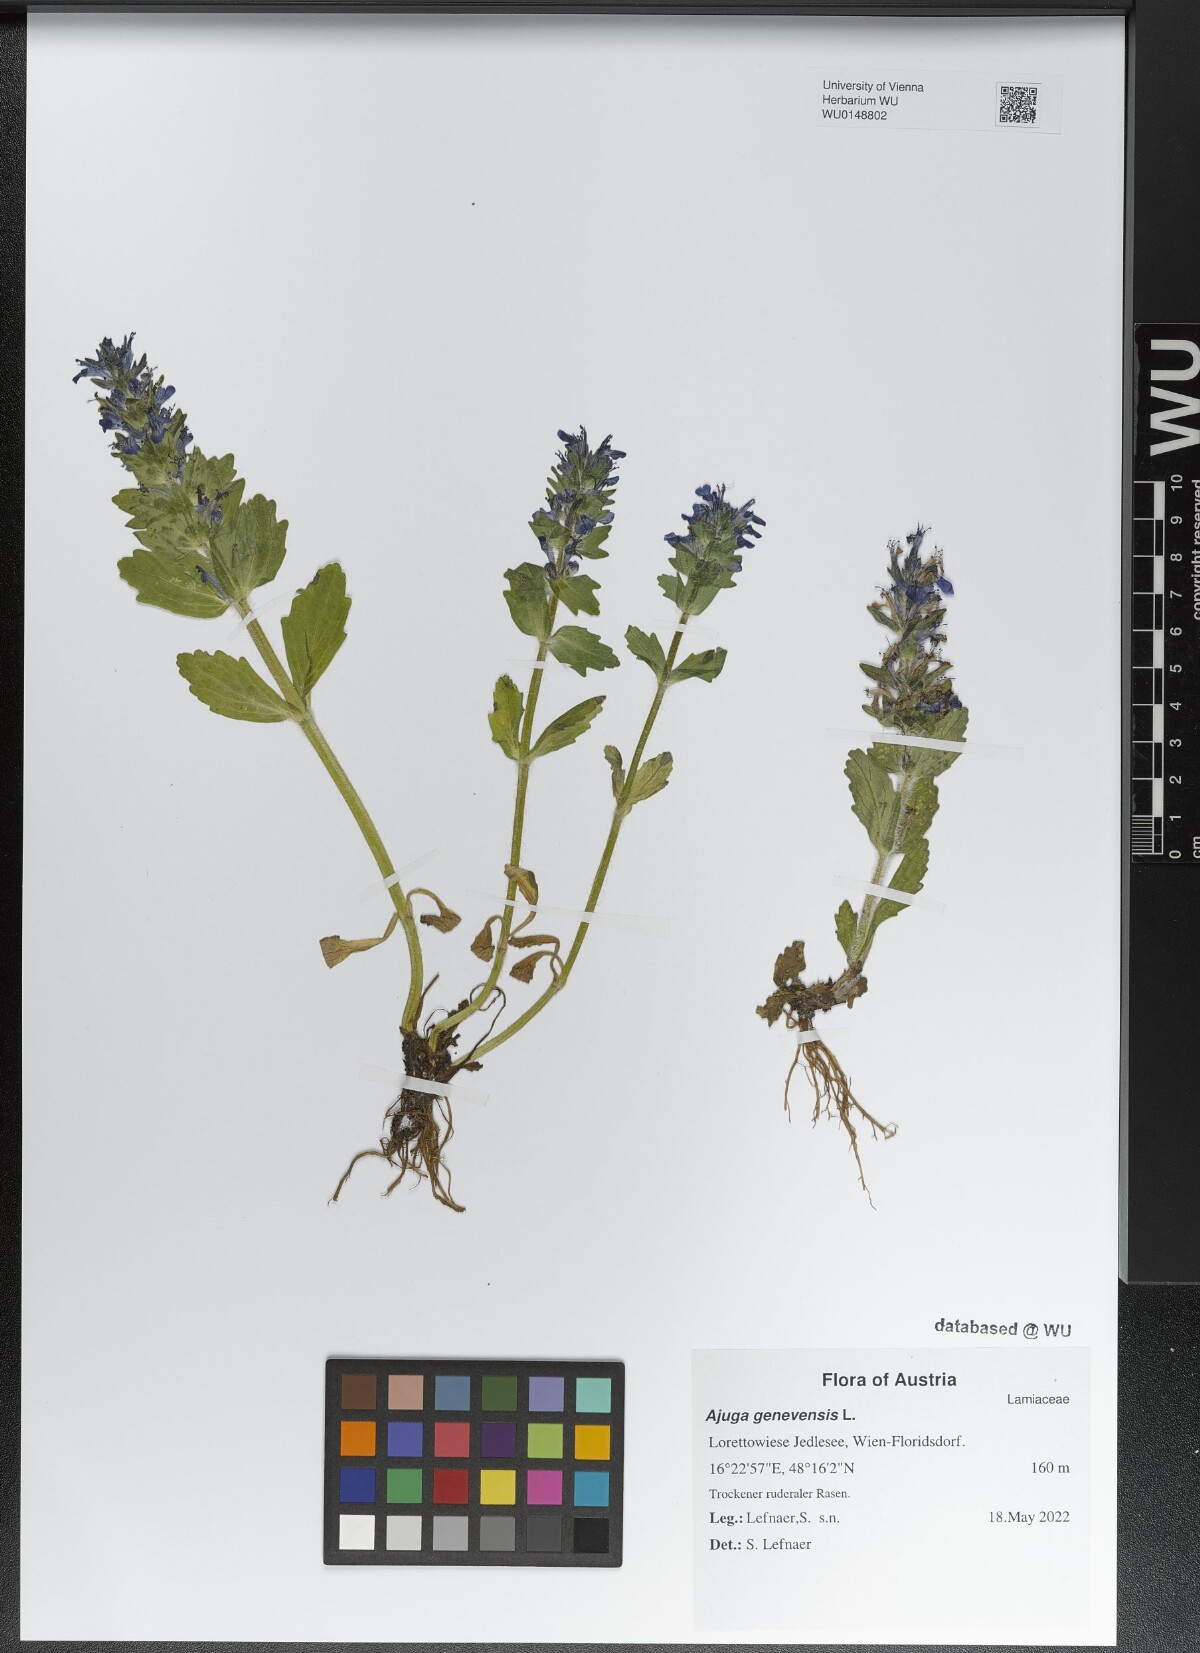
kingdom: Plantae
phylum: Tracheophyta
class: Magnoliopsida
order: Lamiales
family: Lamiaceae
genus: Ajuga
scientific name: Ajuga genevensis
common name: Blue bugle
